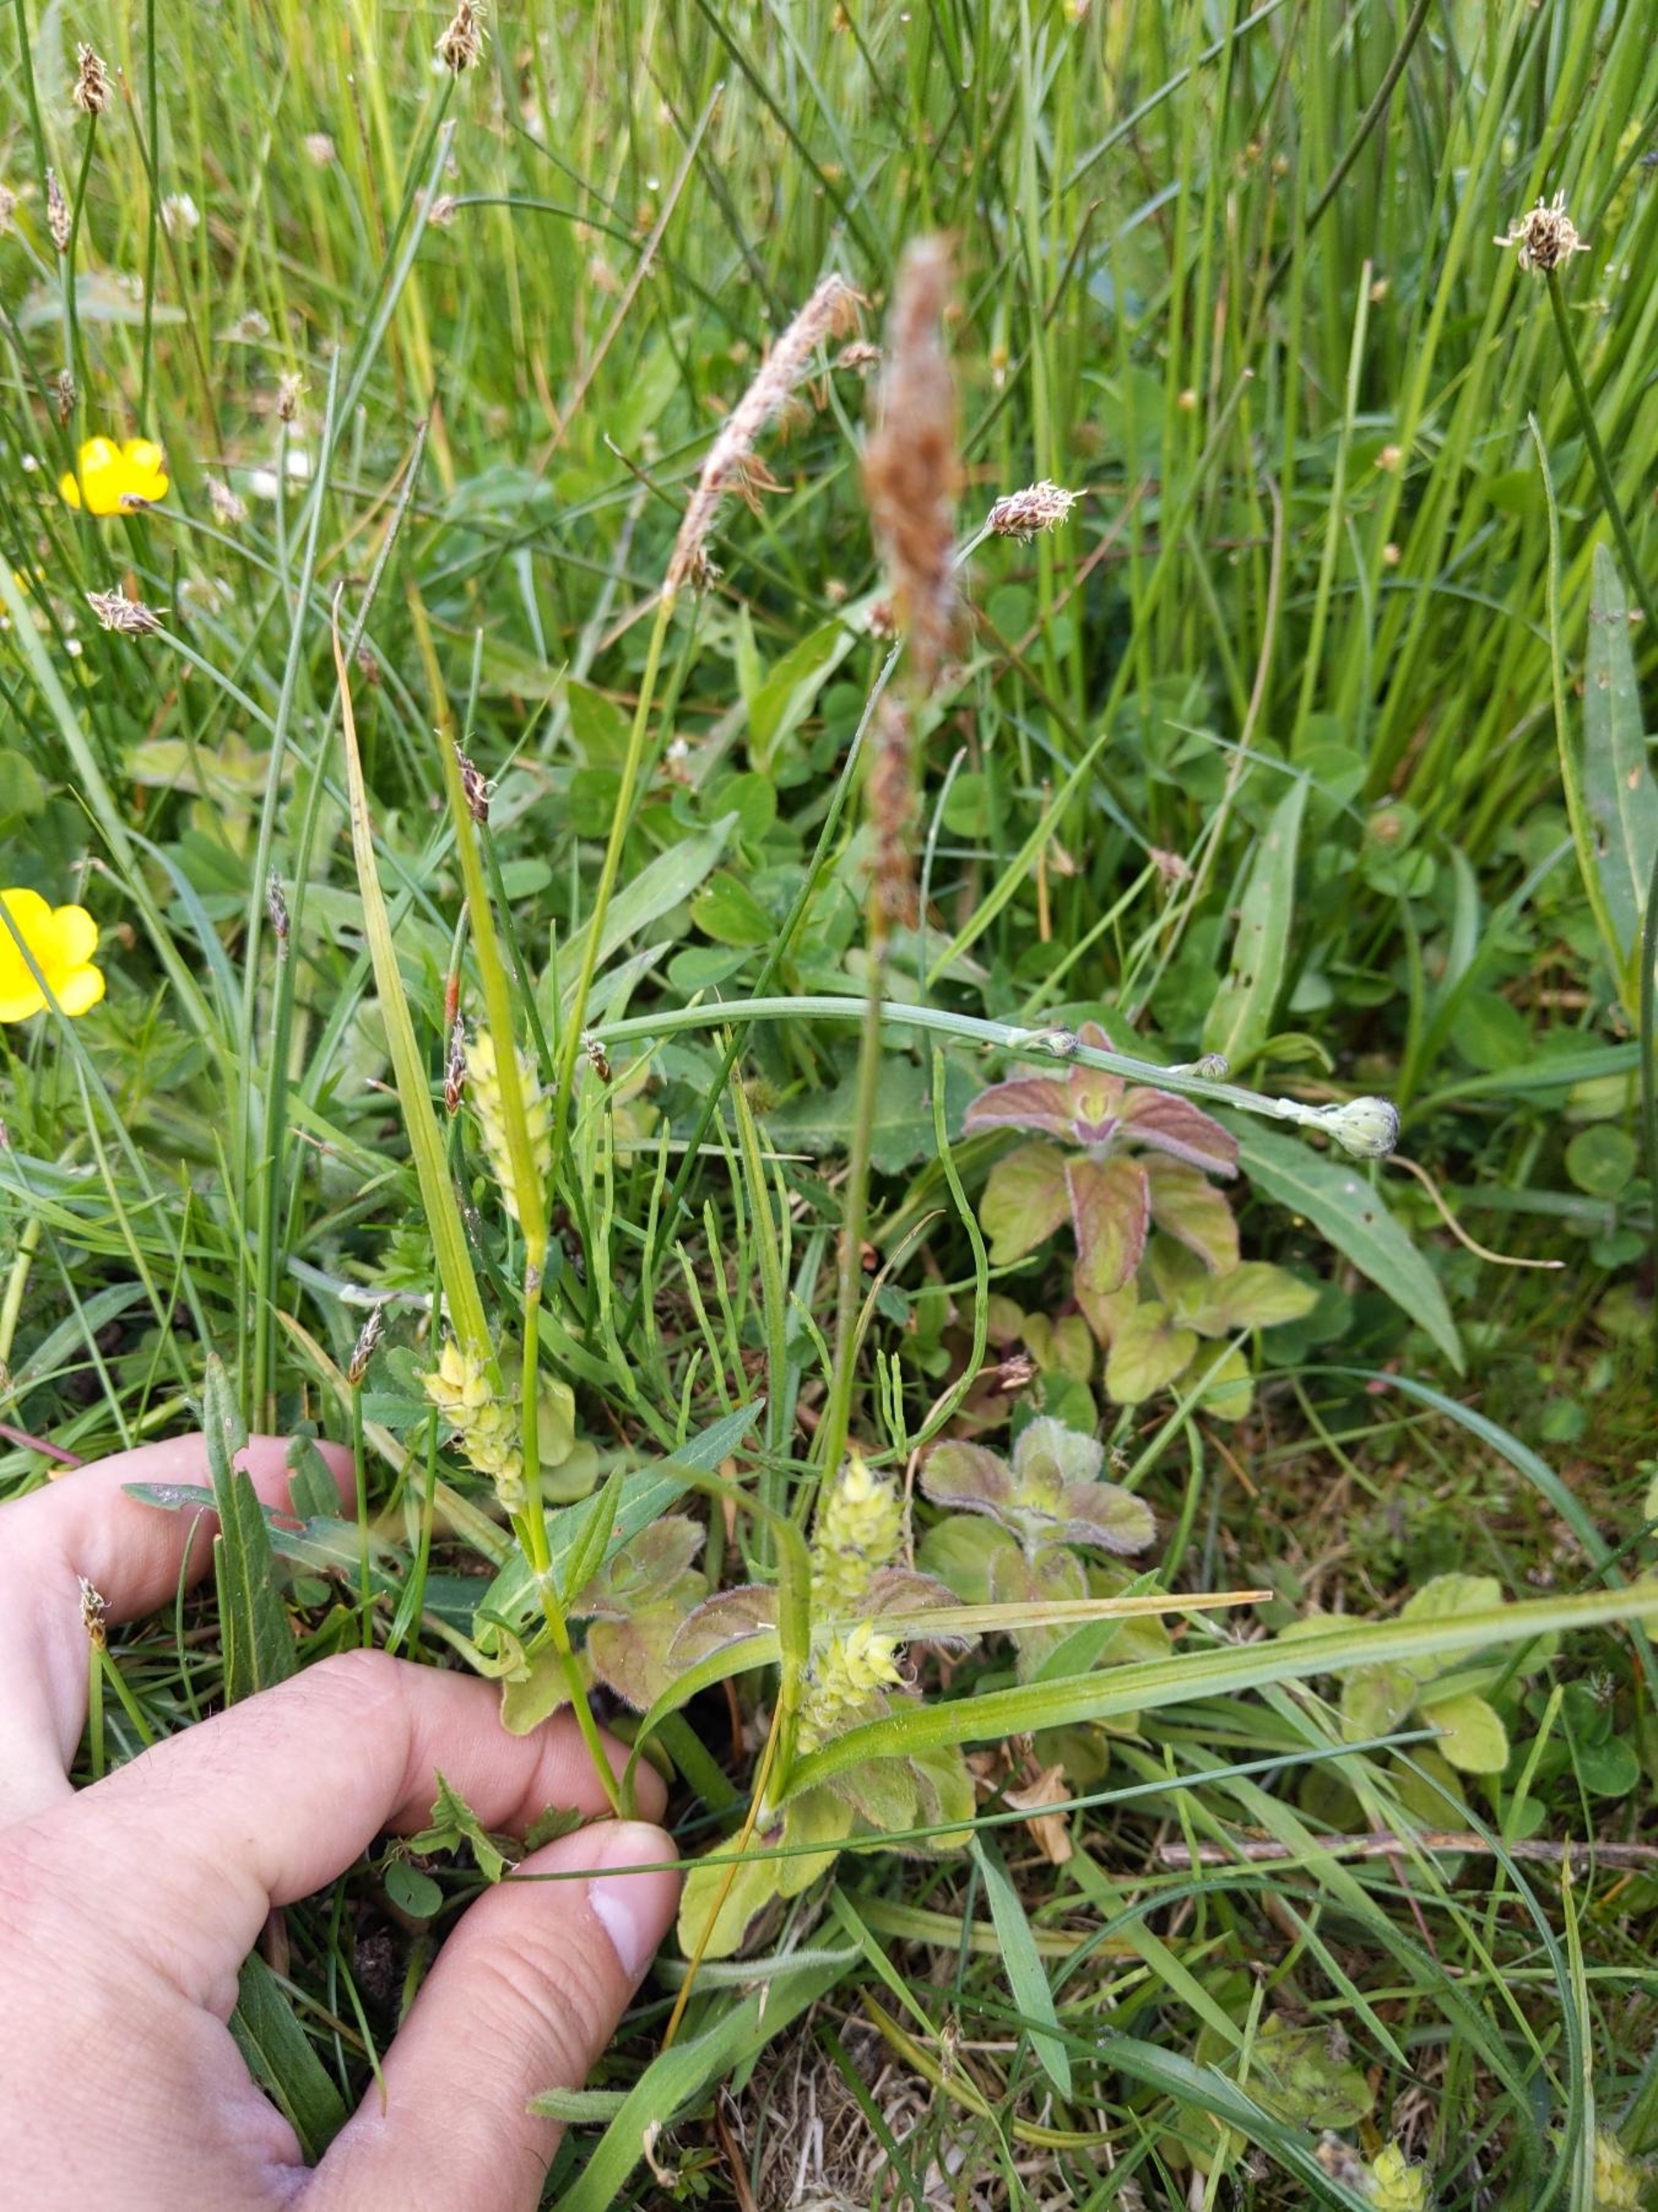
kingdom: Plantae
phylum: Tracheophyta
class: Liliopsida
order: Poales
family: Cyperaceae
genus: Carex
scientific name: Carex hirta
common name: Håret star
